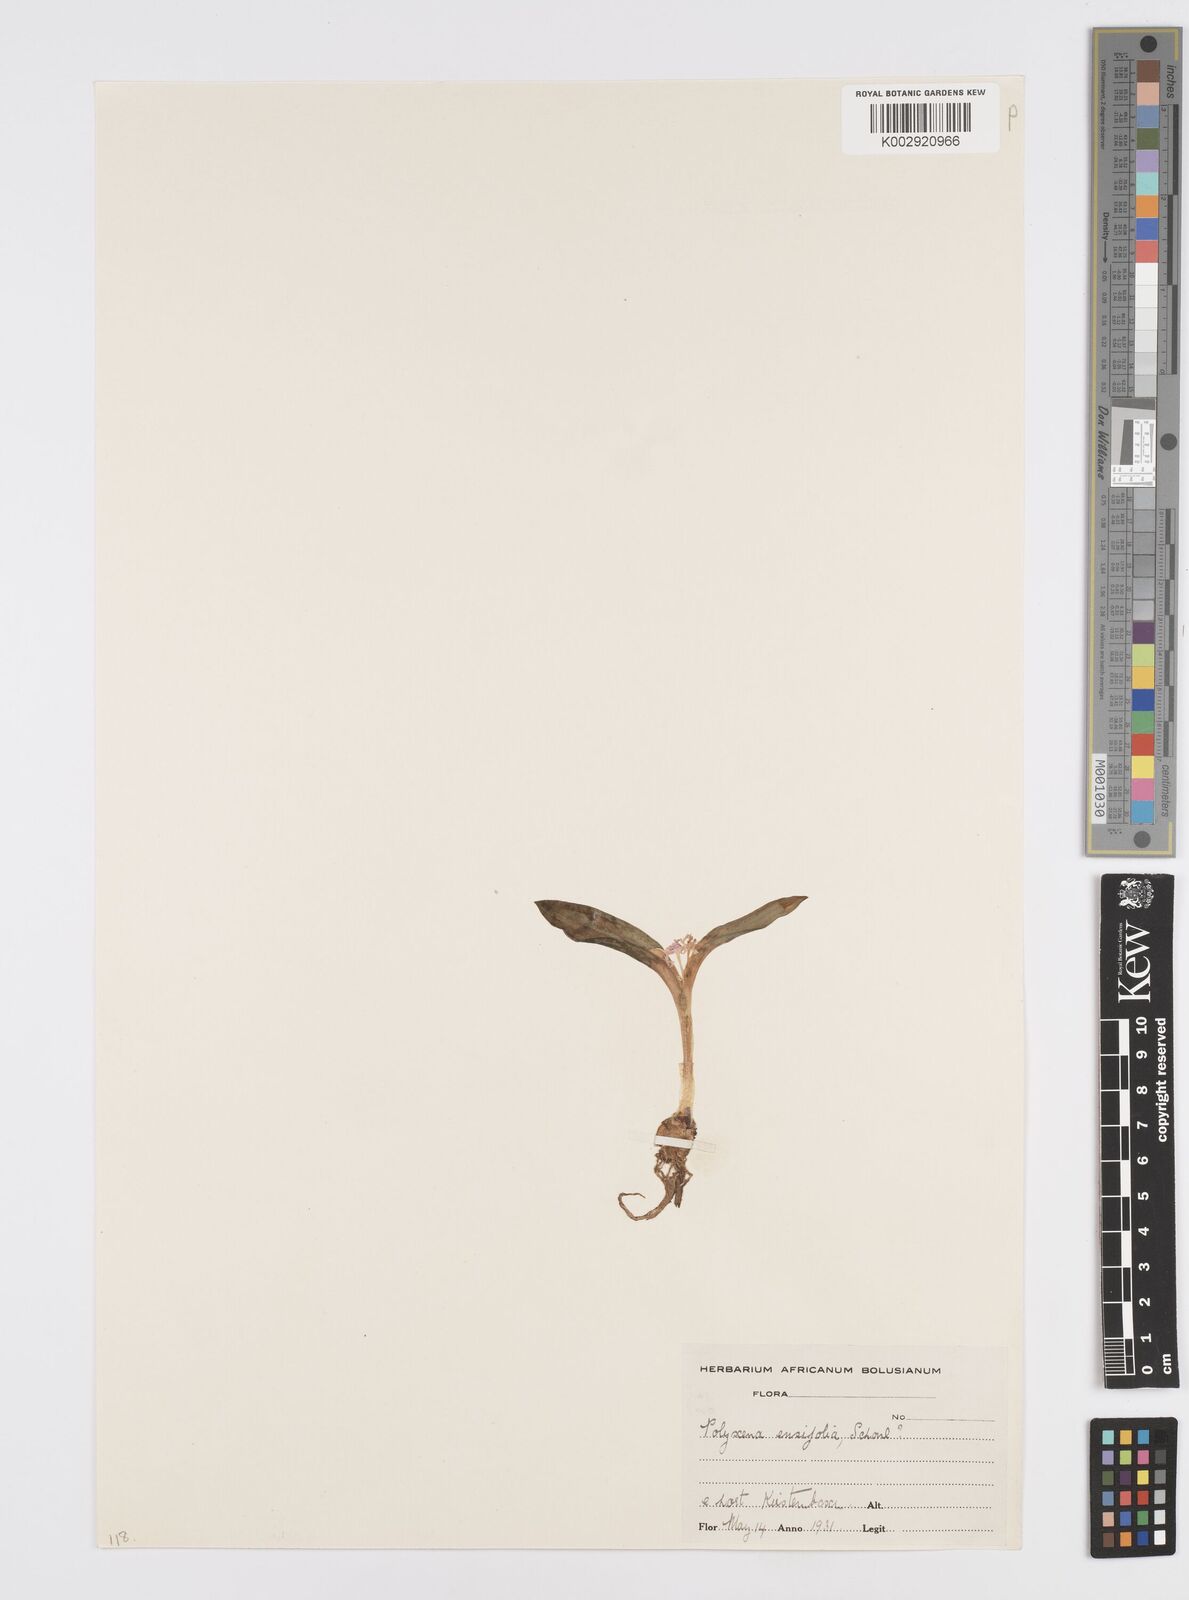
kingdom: Plantae
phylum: Tracheophyta
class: Liliopsida
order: Asparagales
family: Asparagaceae
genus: Lachenalia
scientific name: Lachenalia ensifolia
